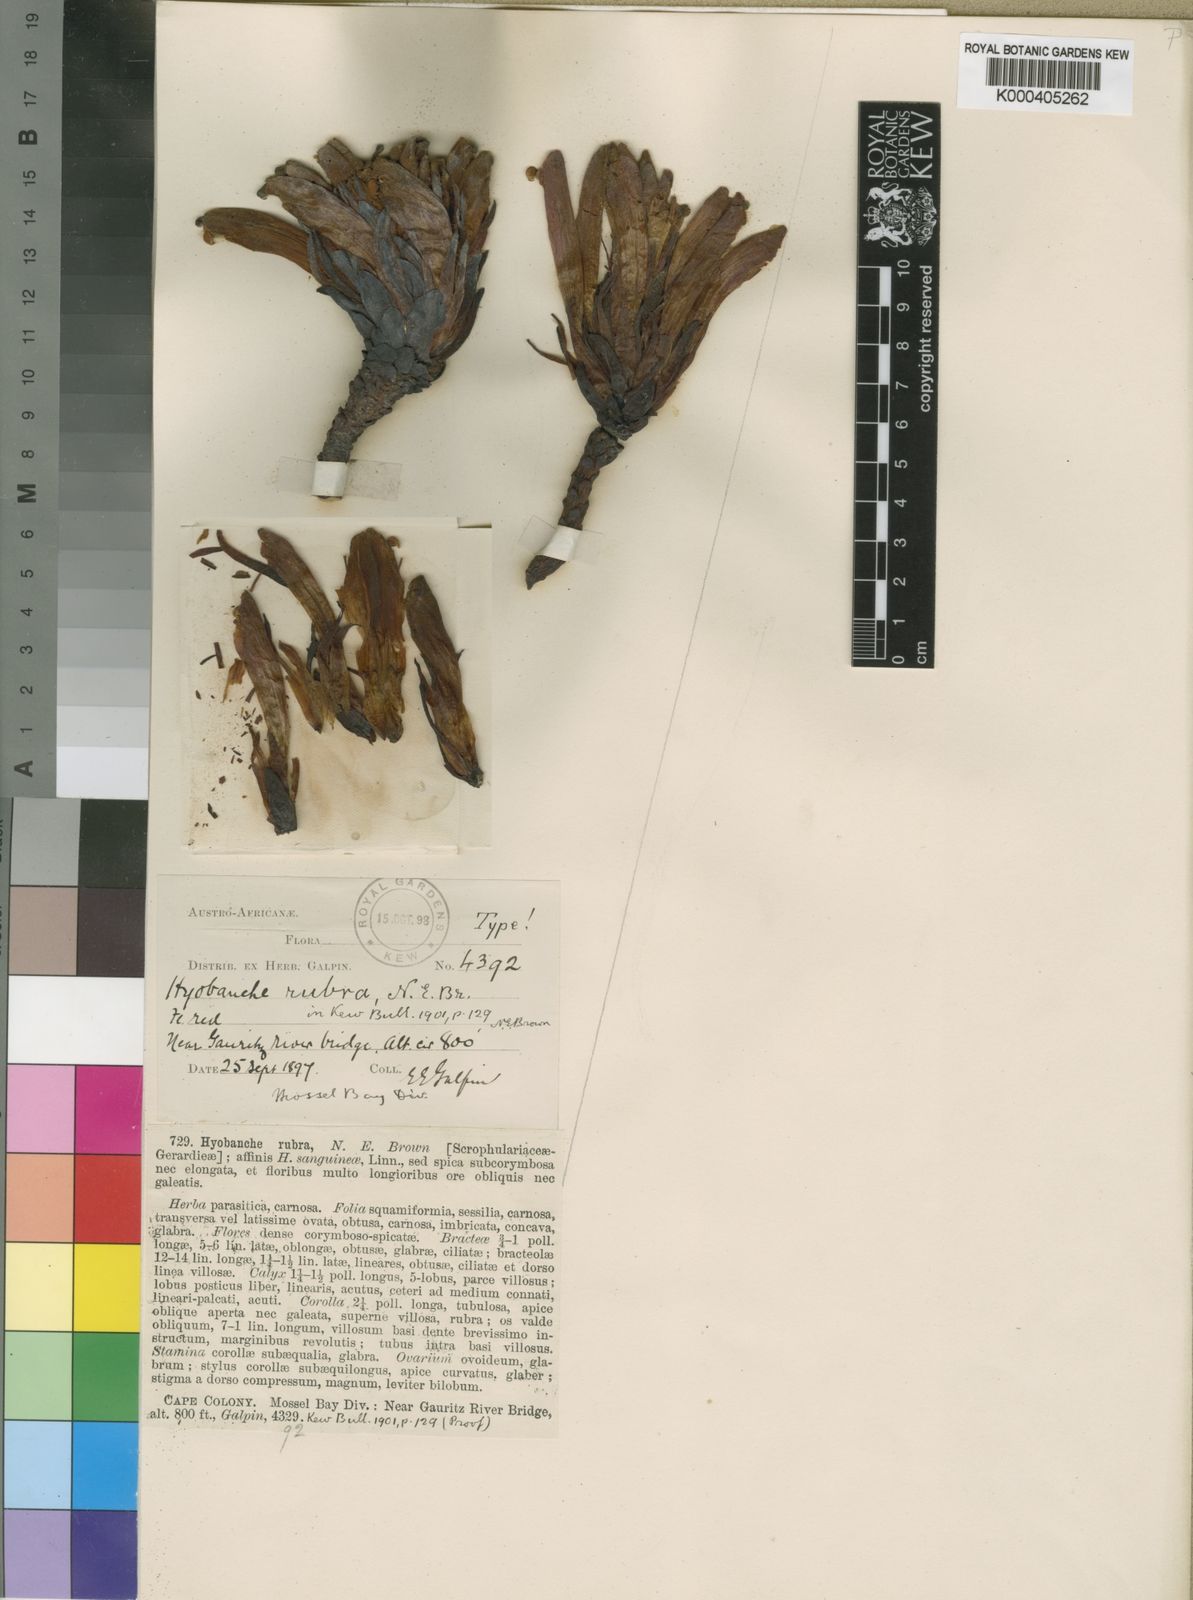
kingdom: Plantae
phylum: Tracheophyta
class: Magnoliopsida
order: Lamiales
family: Orobanchaceae
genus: Hyobanche
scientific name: Hyobanche rubra
